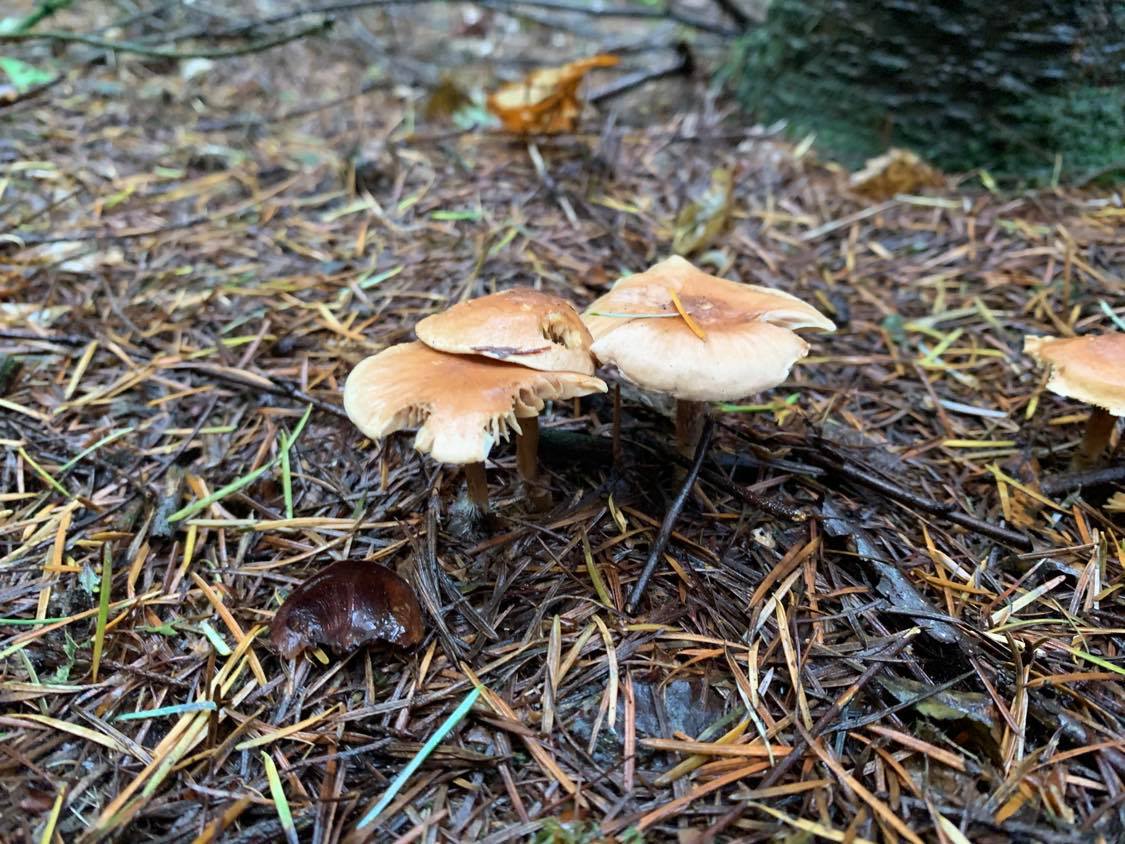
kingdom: Fungi
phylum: Basidiomycota
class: Agaricomycetes
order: Agaricales
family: Omphalotaceae
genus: Collybiopsis
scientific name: Collybiopsis peronata
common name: bestøvlet fladhat
